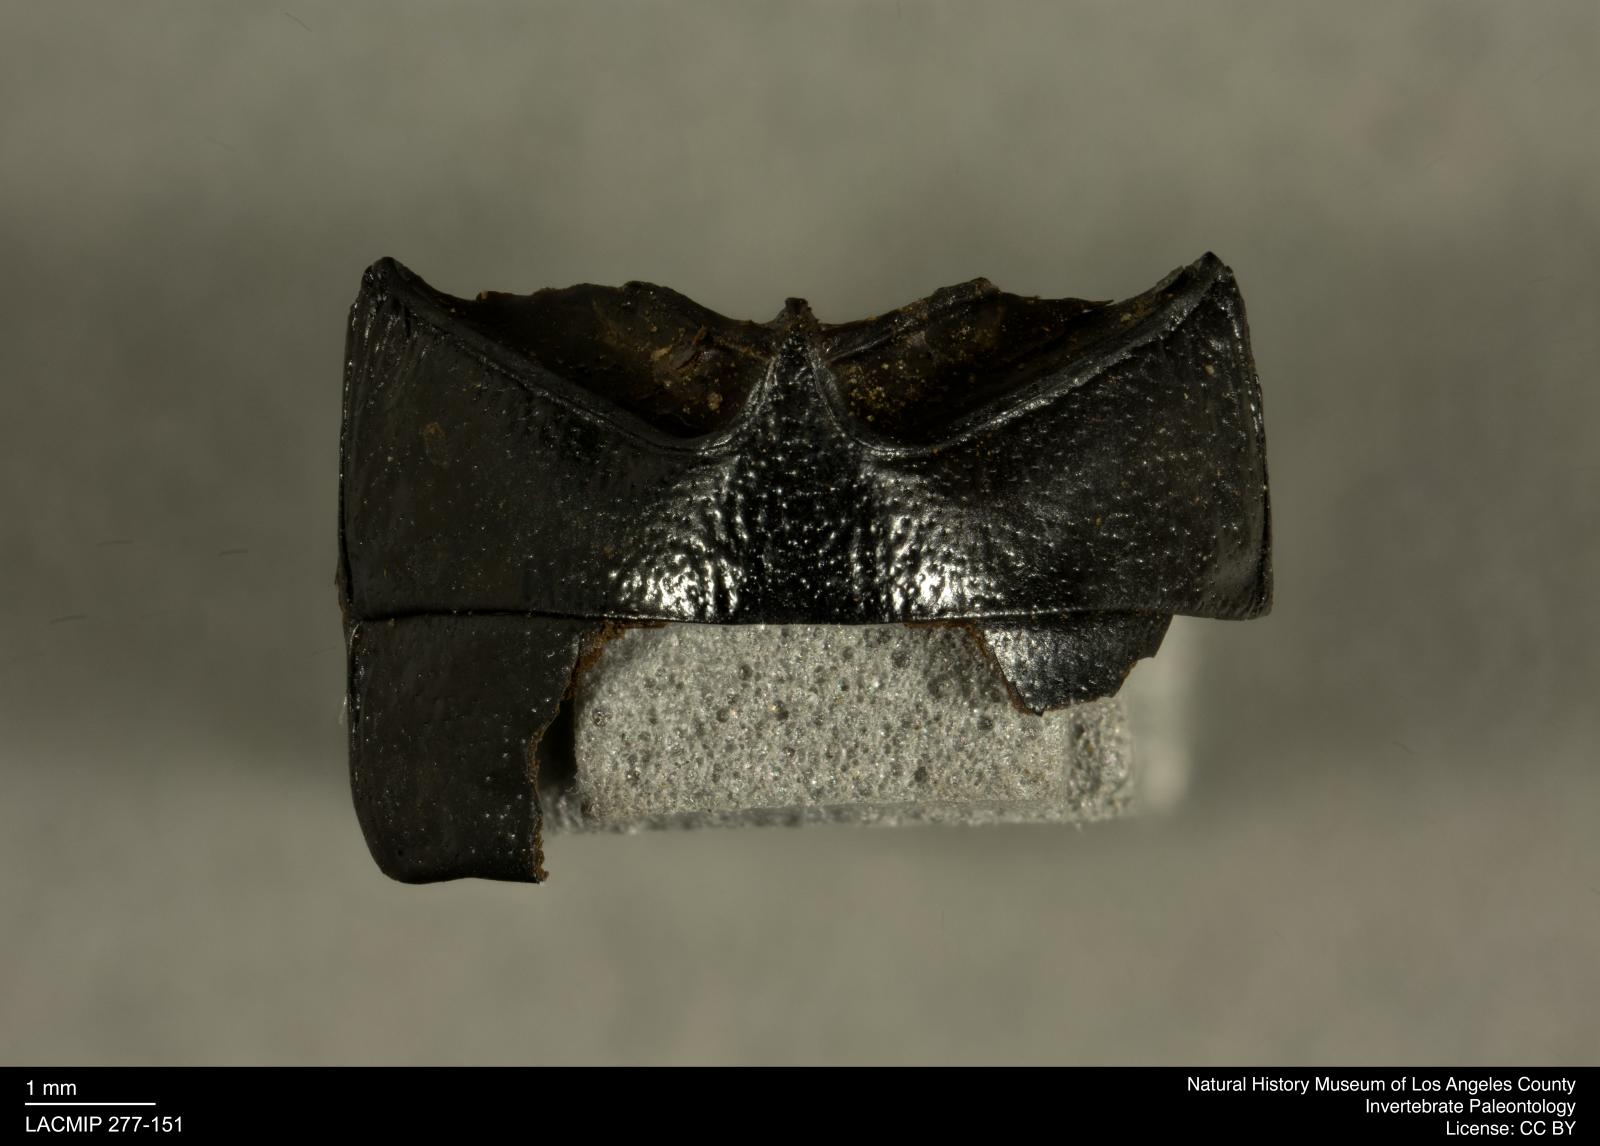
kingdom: Animalia
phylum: Arthropoda
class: Insecta
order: Coleoptera
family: Tenebrionidae
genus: Coniontis
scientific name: Coniontis abdominalis
